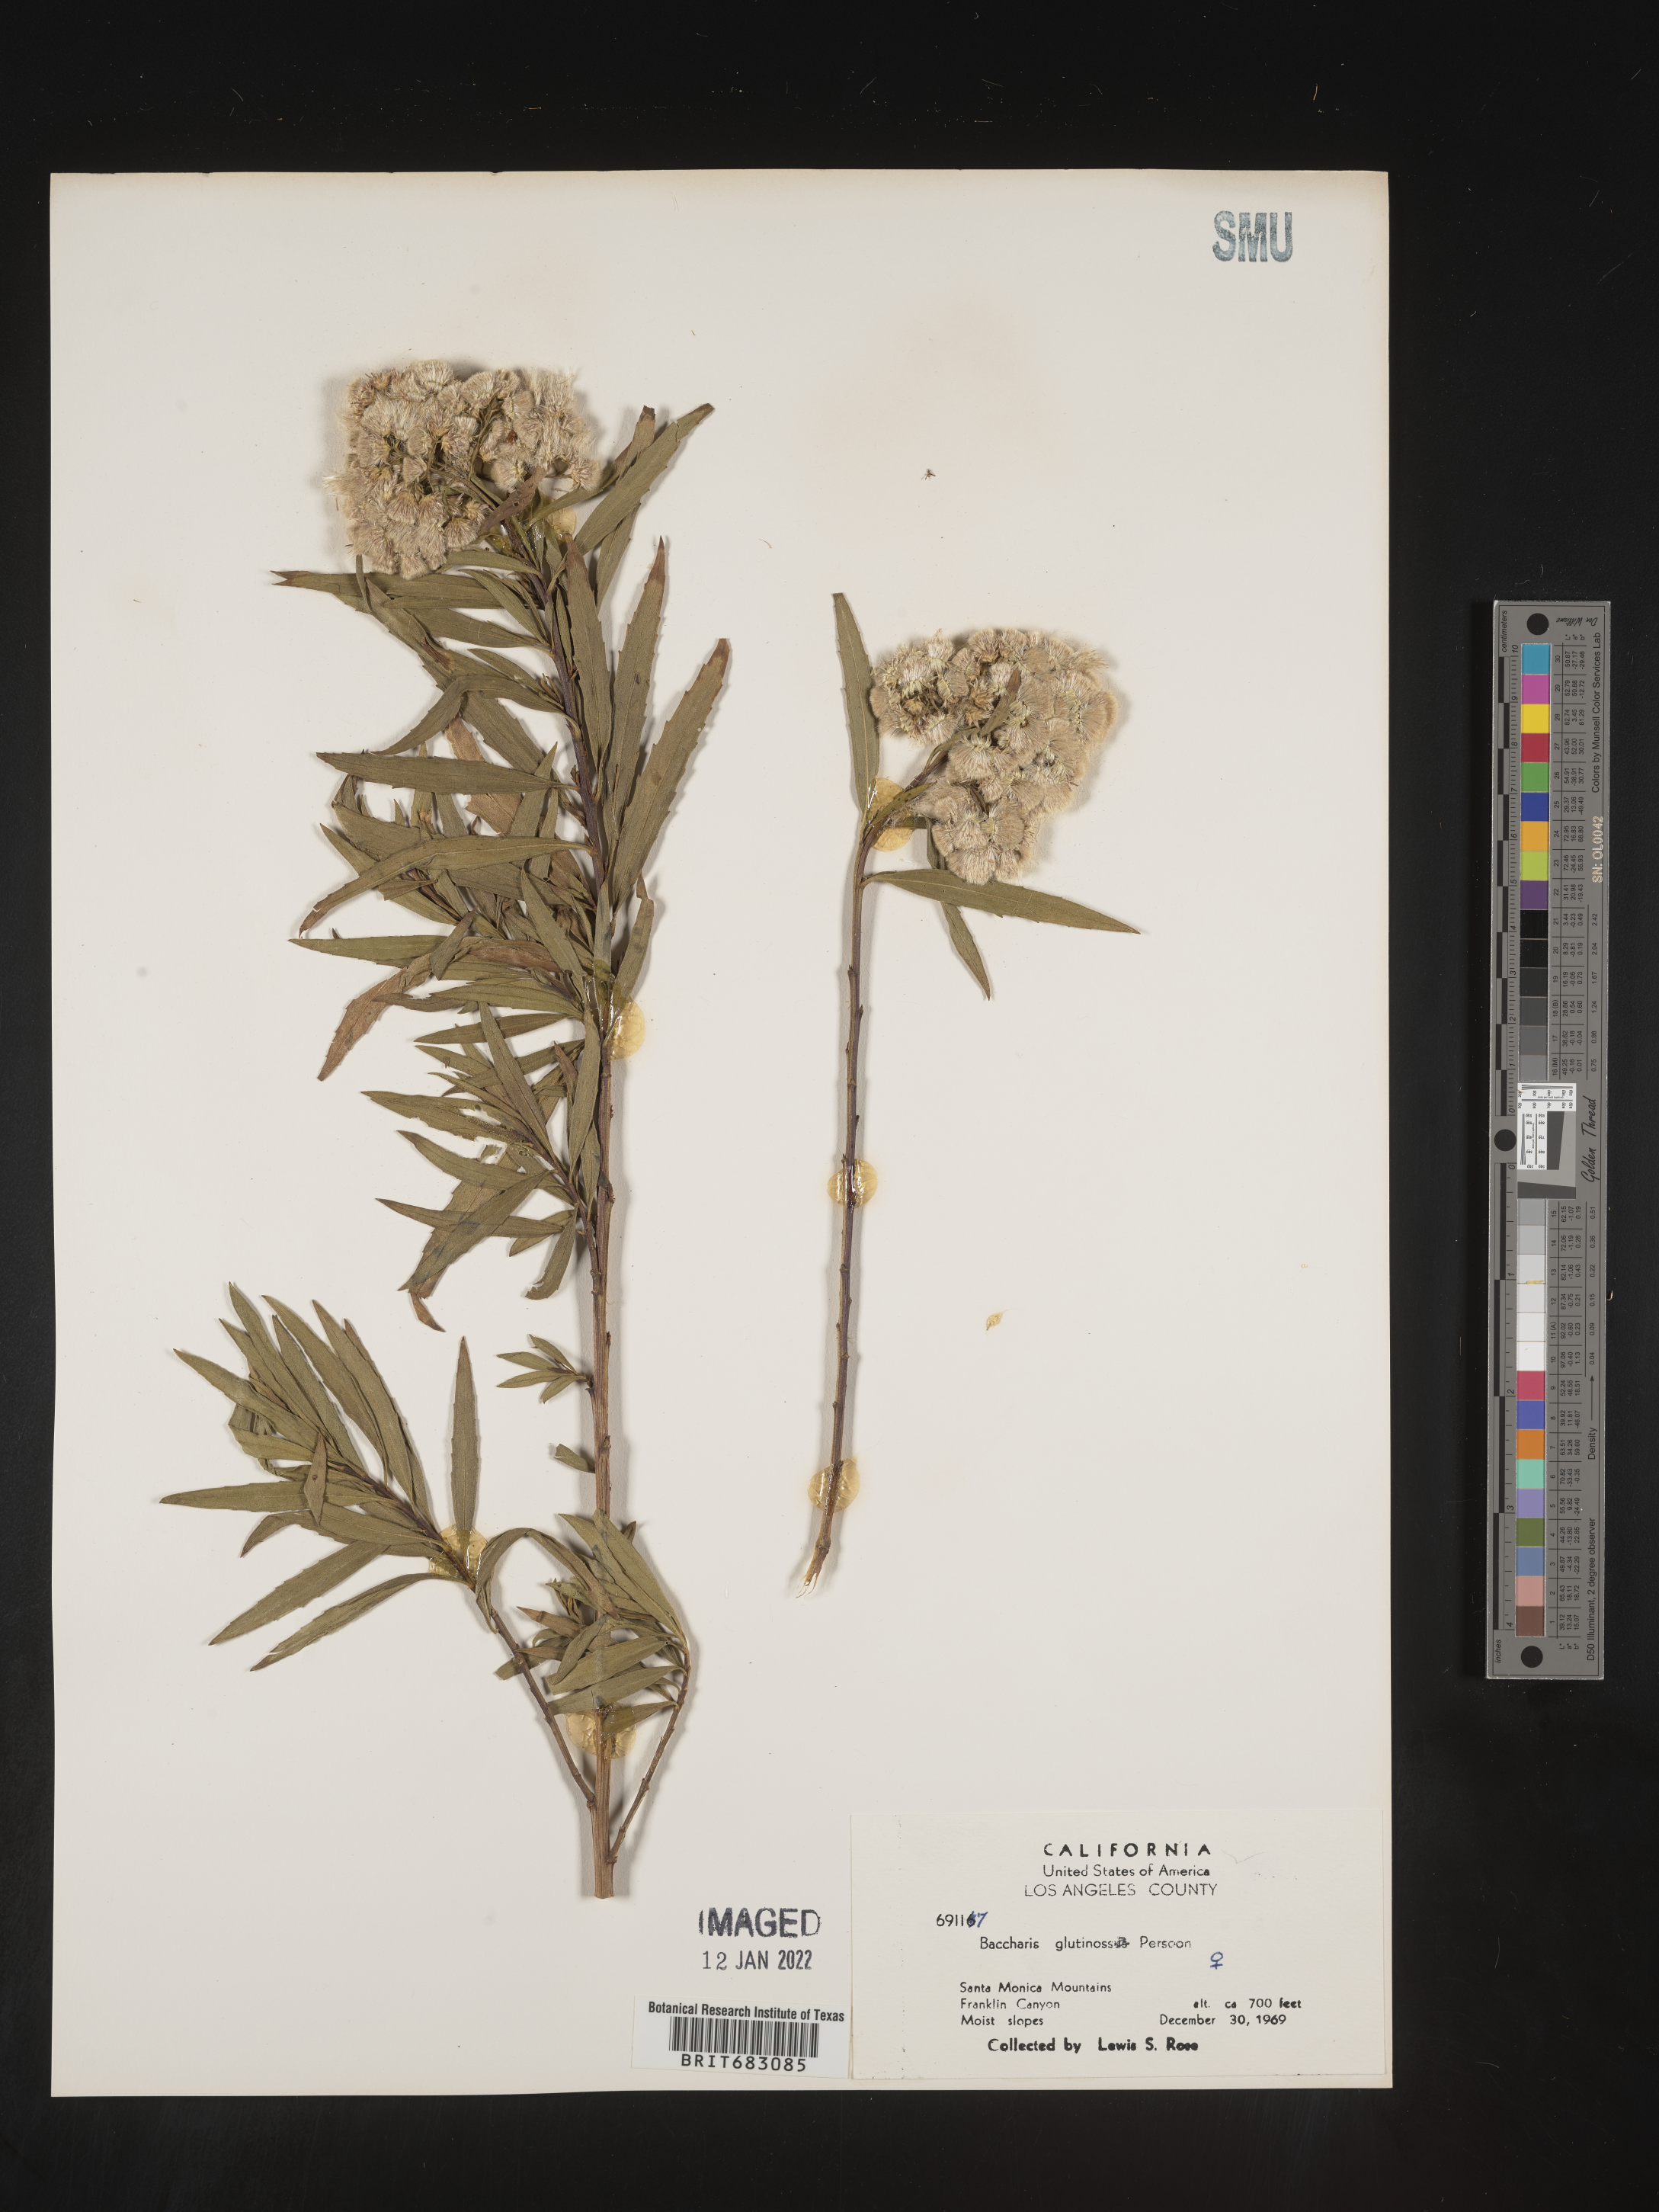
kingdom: Plantae
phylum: Tracheophyta
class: Magnoliopsida
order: Asterales
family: Asteraceae
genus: Baccharis
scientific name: Baccharis glutinosa
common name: Saltmarsh baccharis
